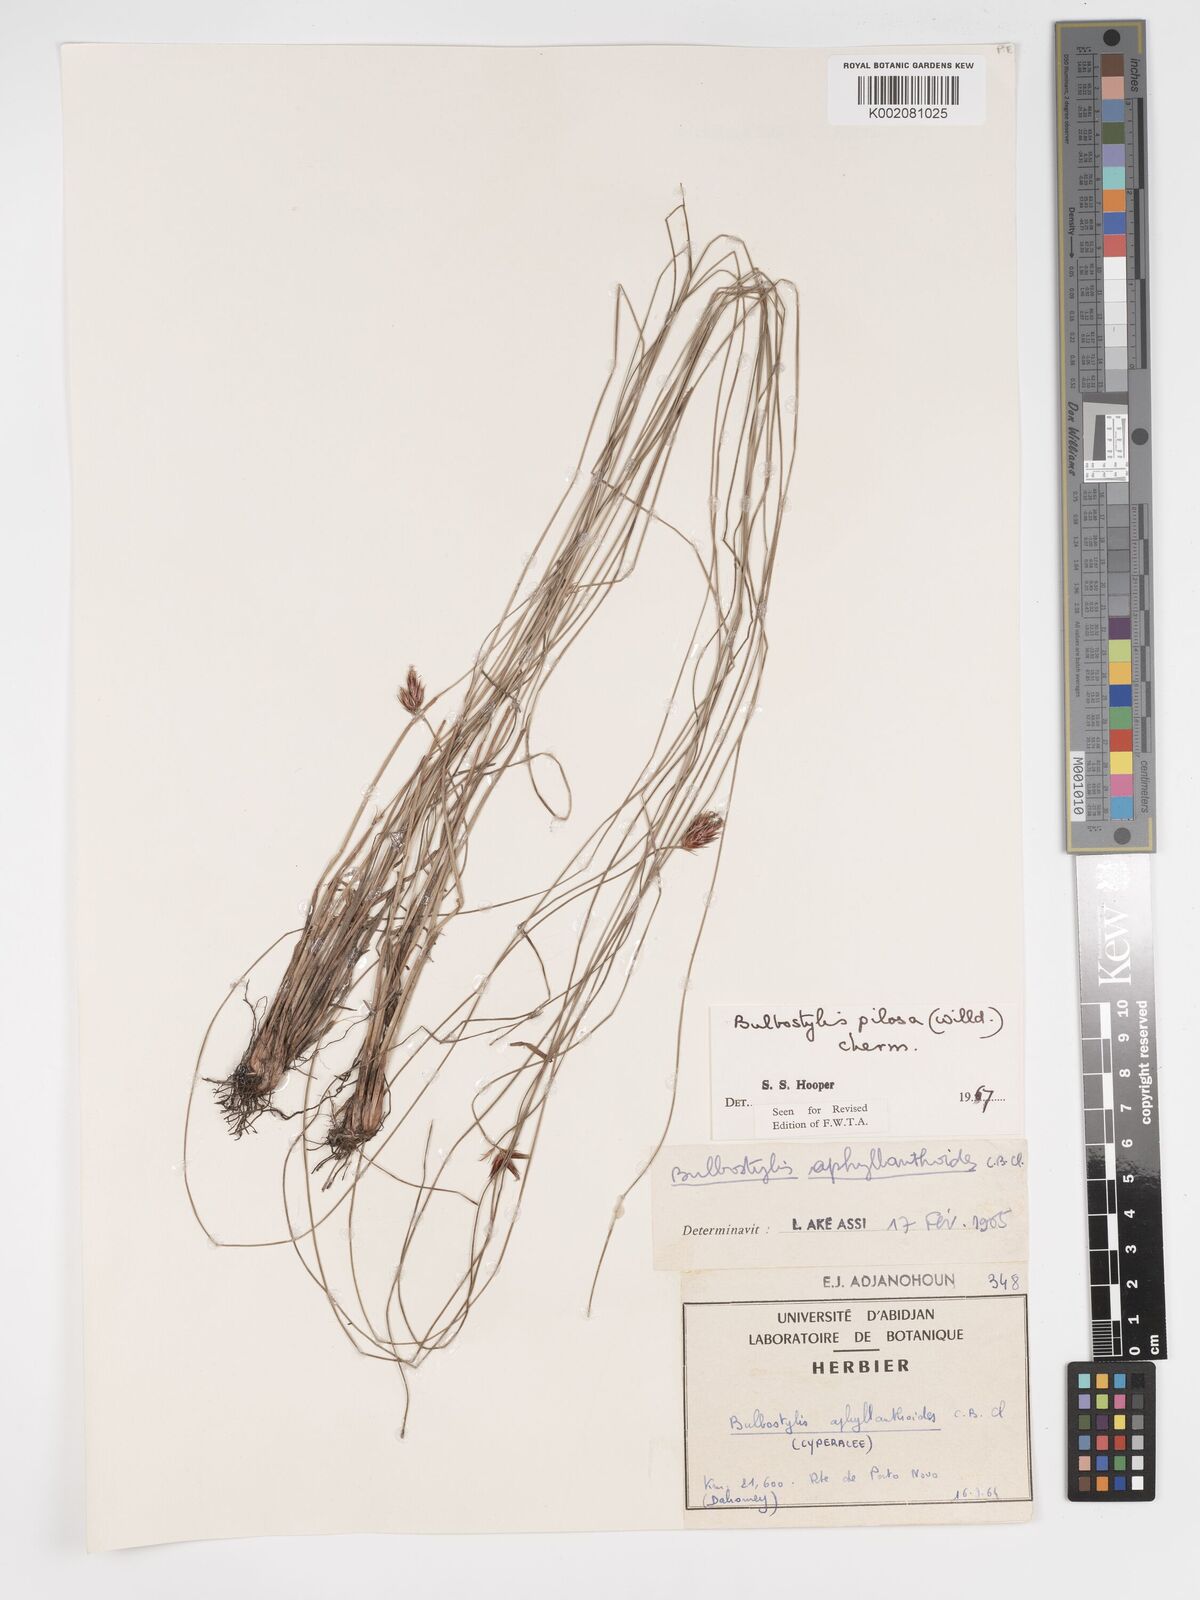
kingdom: Plantae
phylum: Tracheophyta
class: Liliopsida
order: Poales
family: Cyperaceae
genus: Bulbostylis
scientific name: Bulbostylis pilosa
